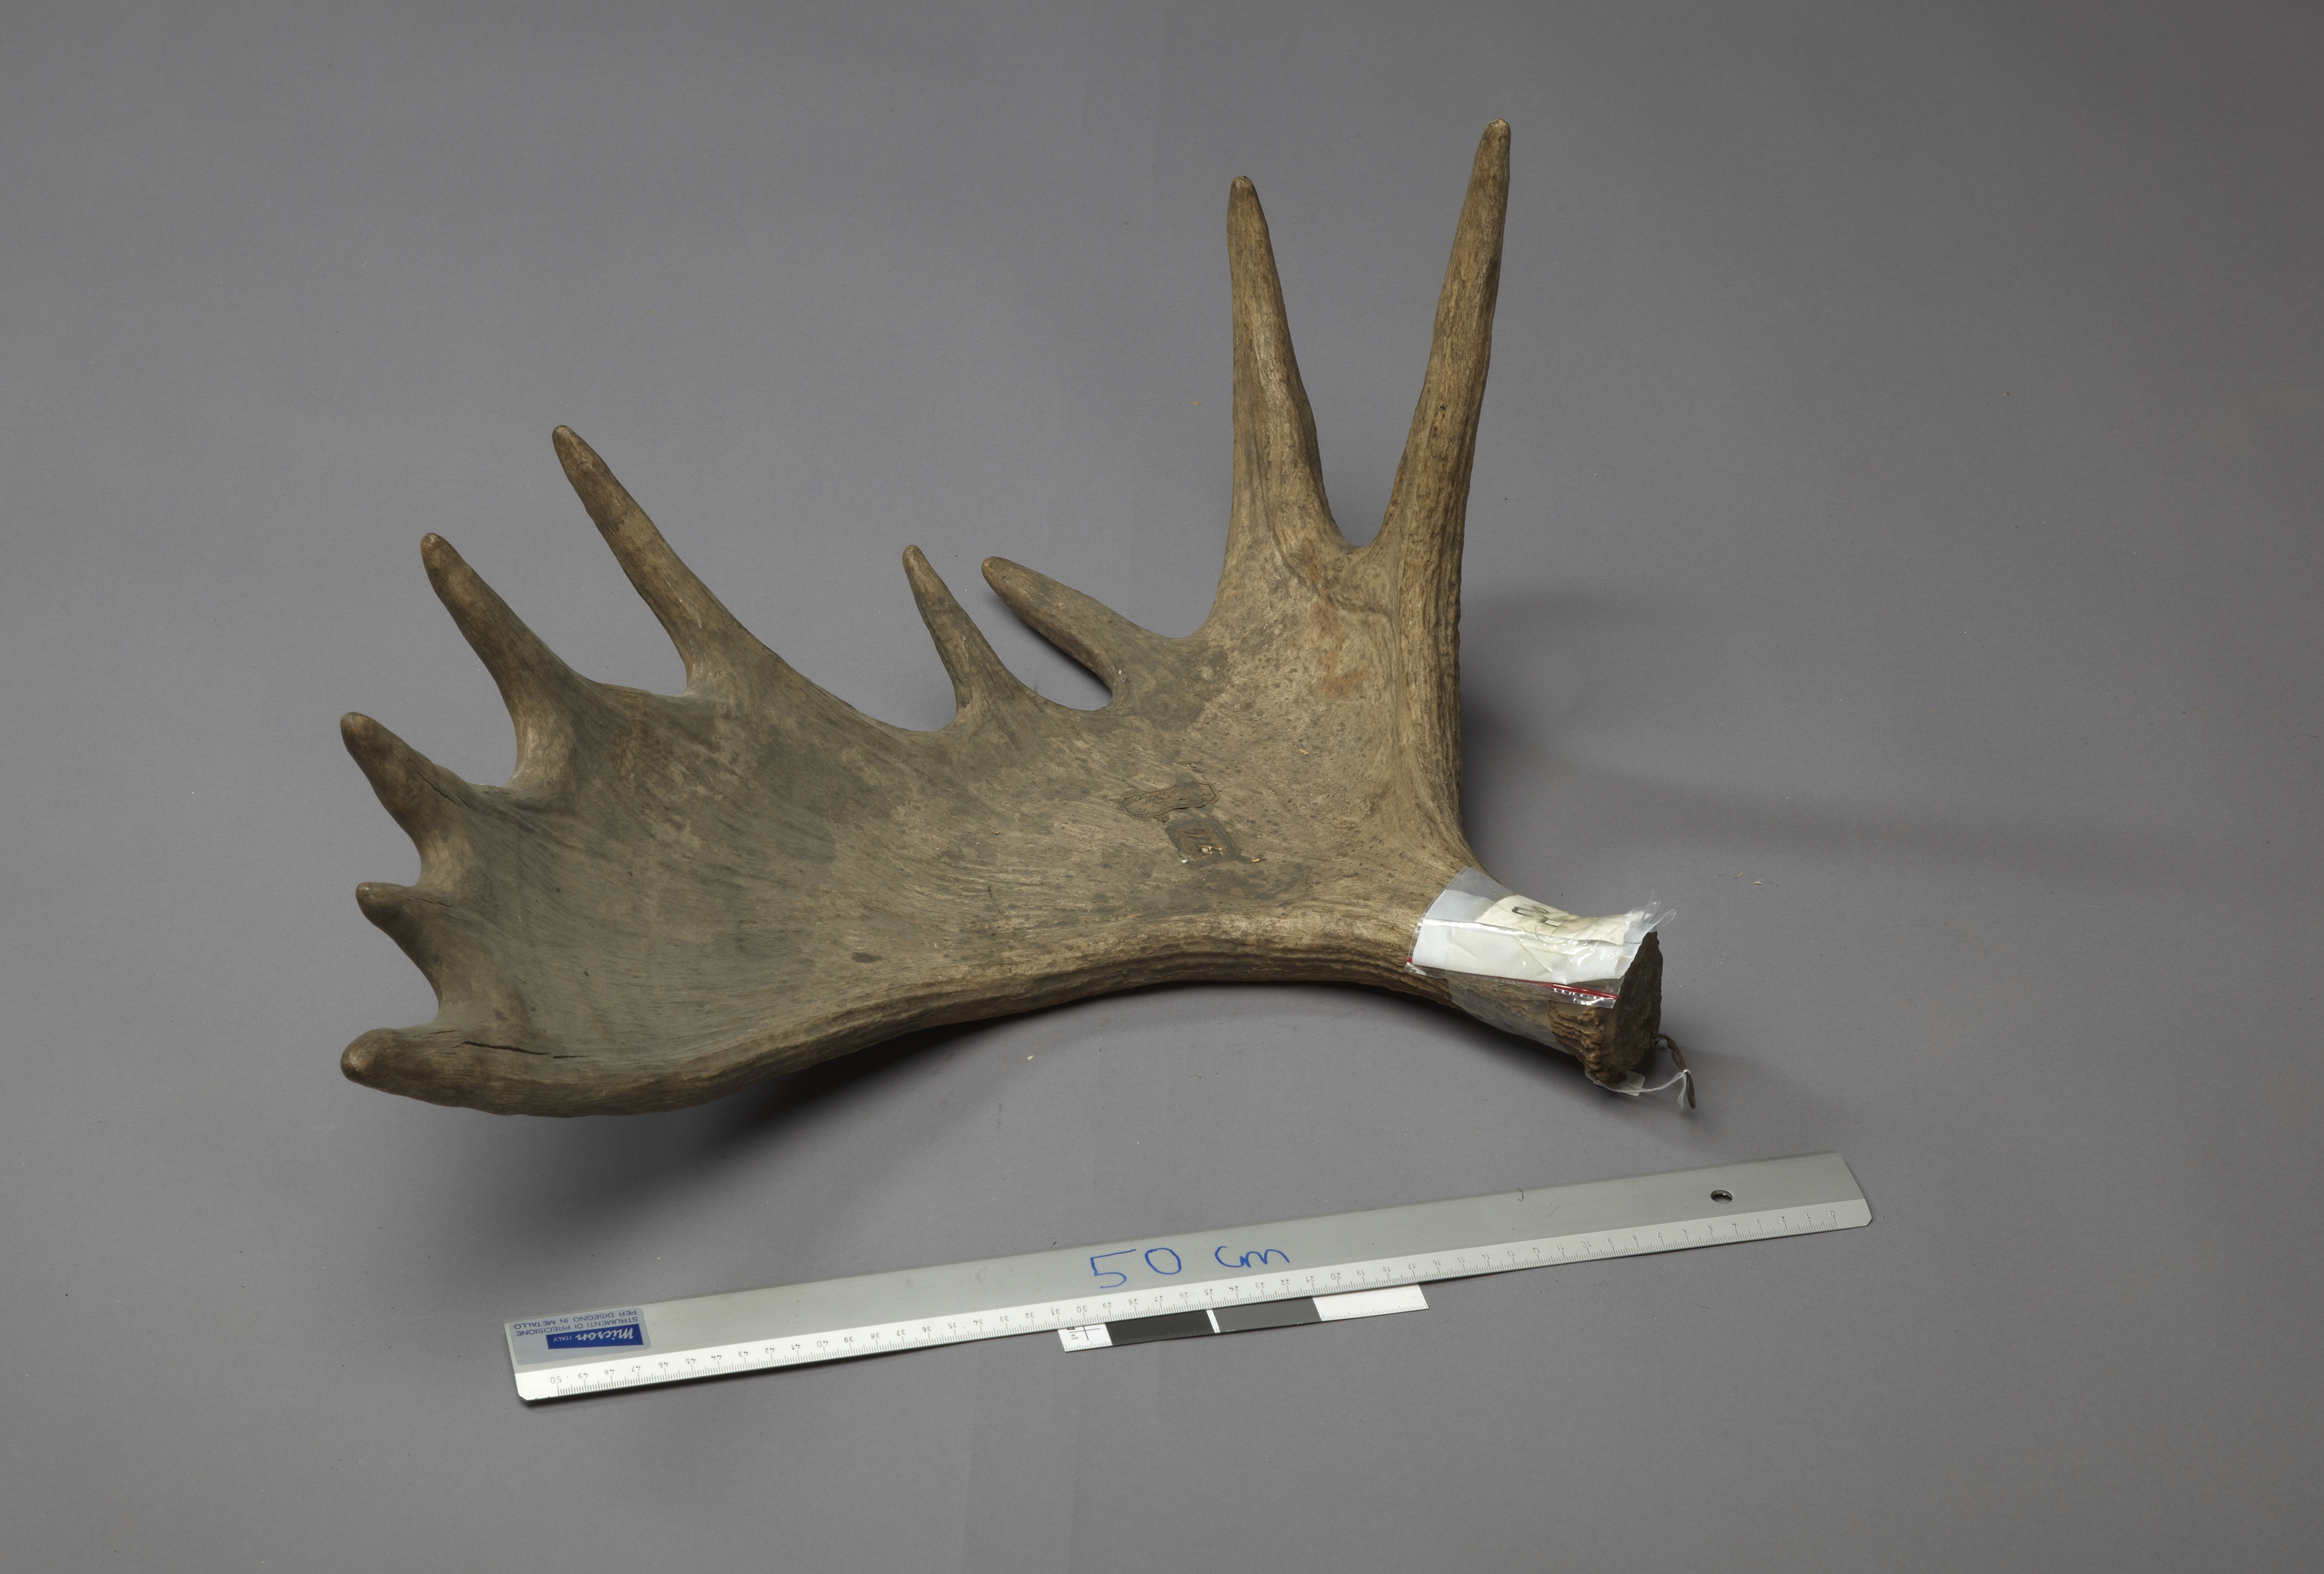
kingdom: Animalia
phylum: Chordata
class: Mammalia
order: Artiodactyla
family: Cervidae
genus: Alces
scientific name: Alces alces
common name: Moose
